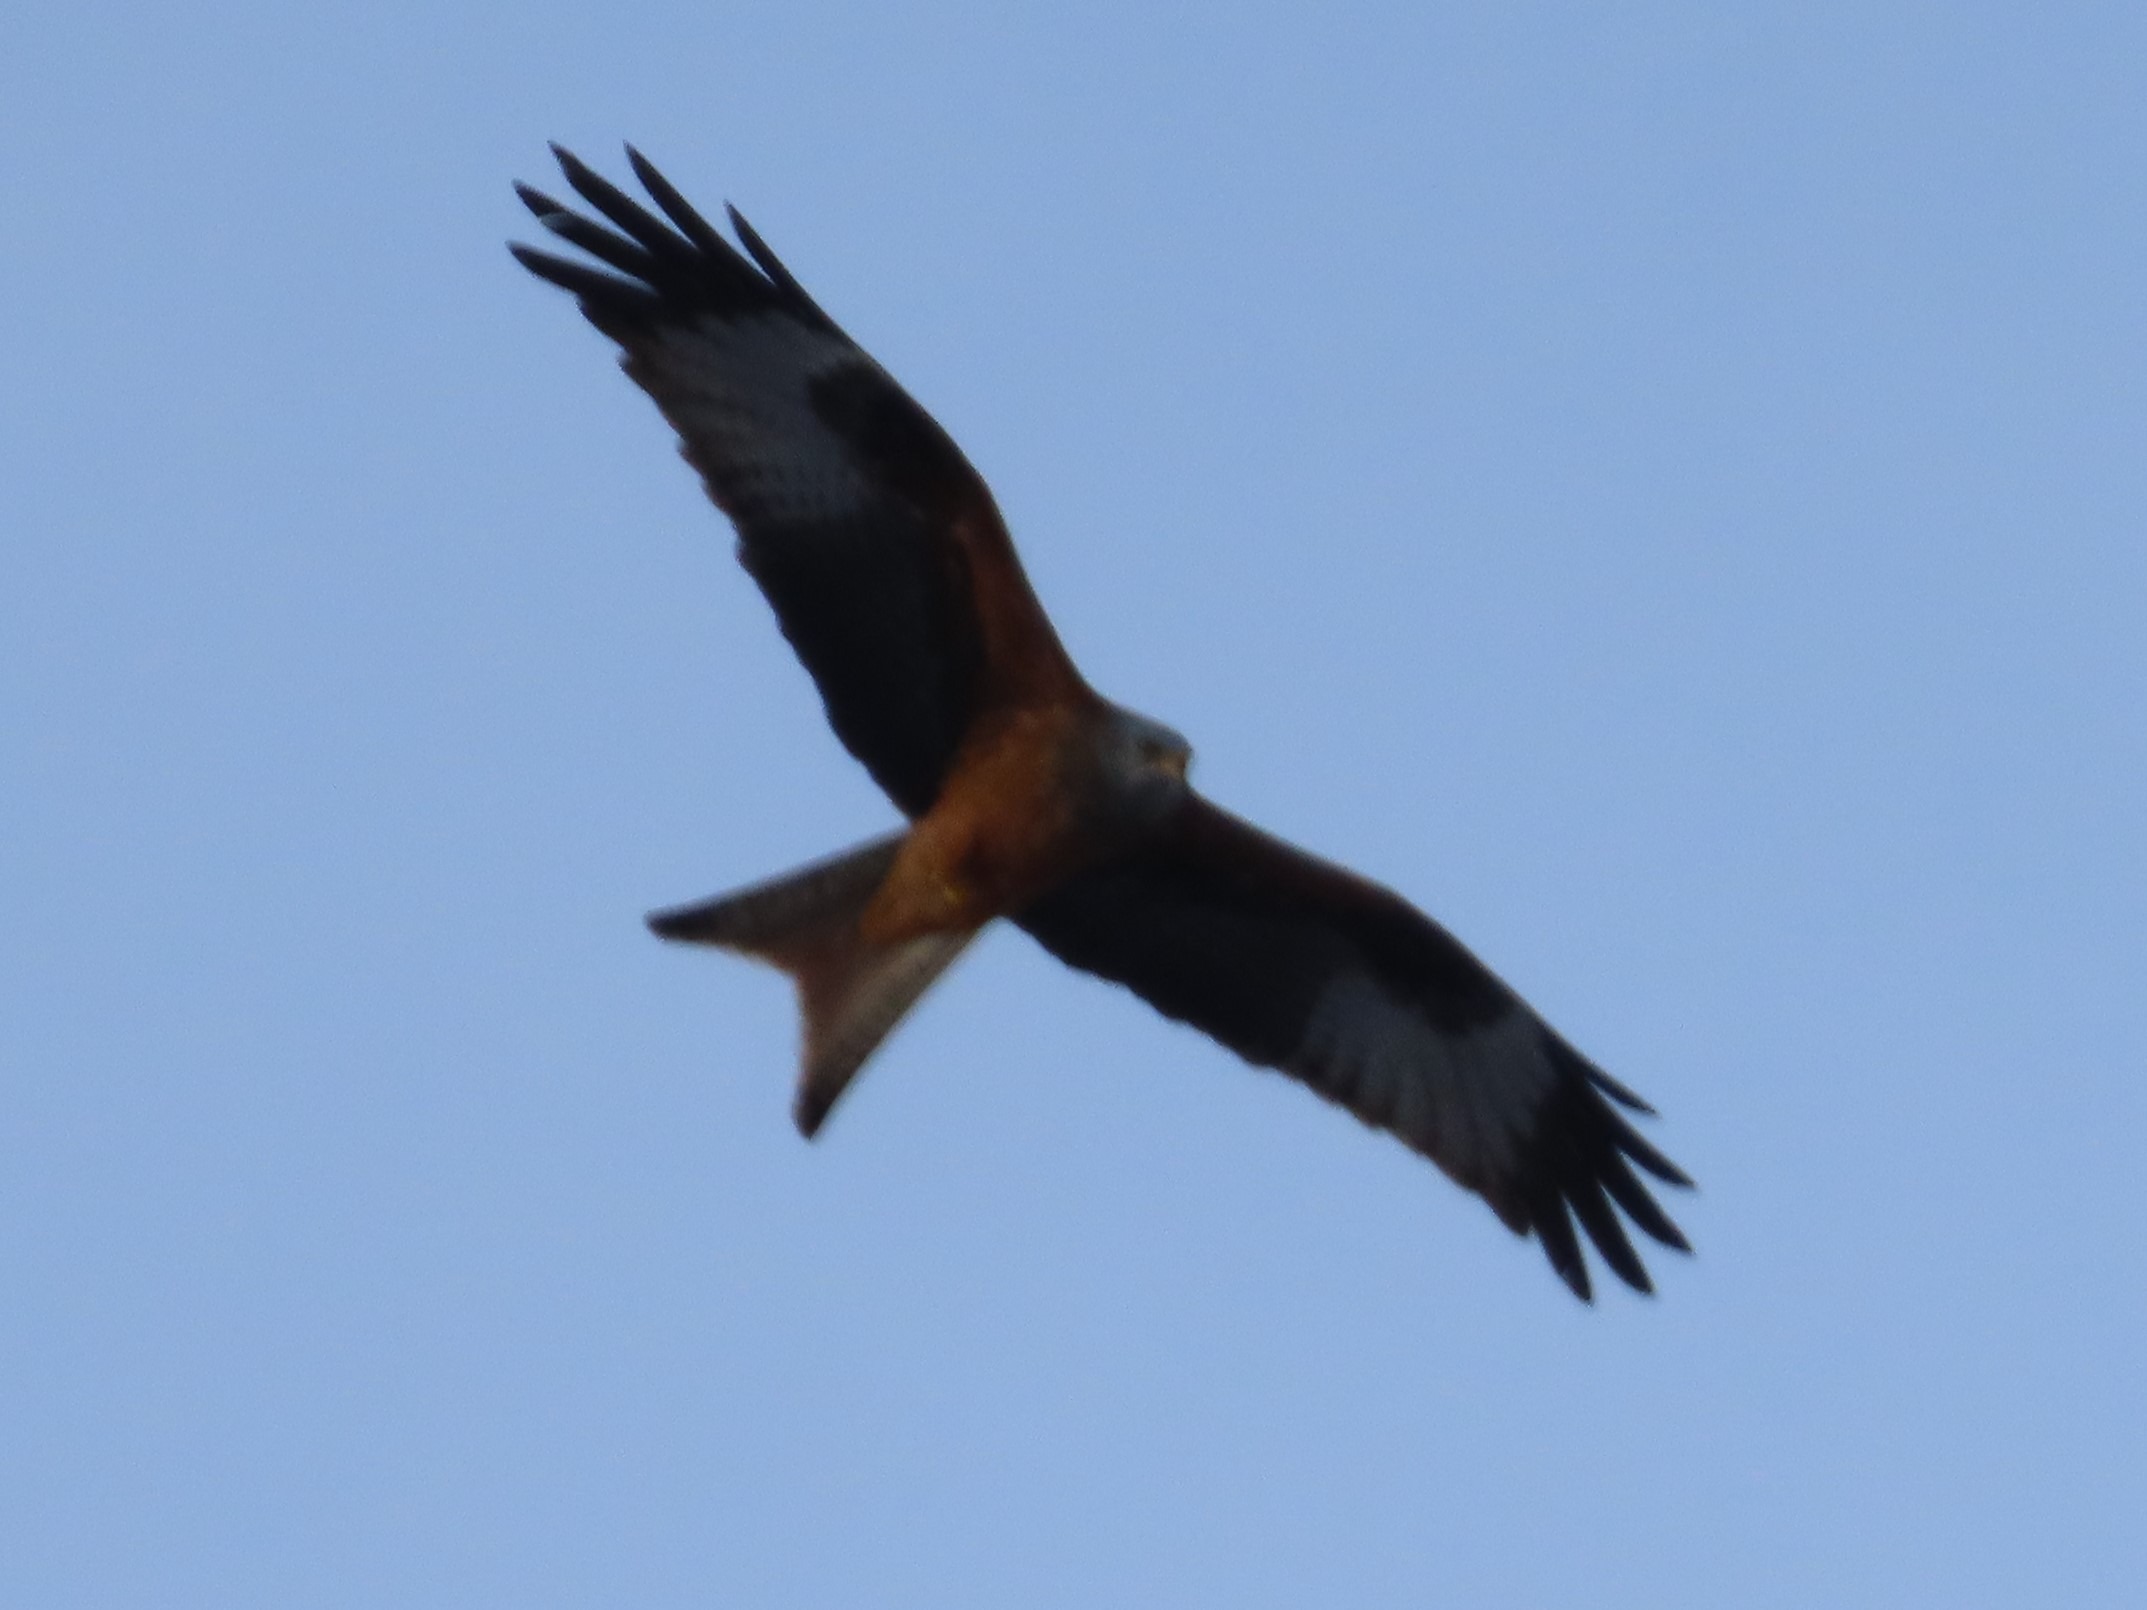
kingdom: Animalia
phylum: Chordata
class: Aves
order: Accipitriformes
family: Accipitridae
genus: Milvus
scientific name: Milvus milvus
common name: Rød glente
